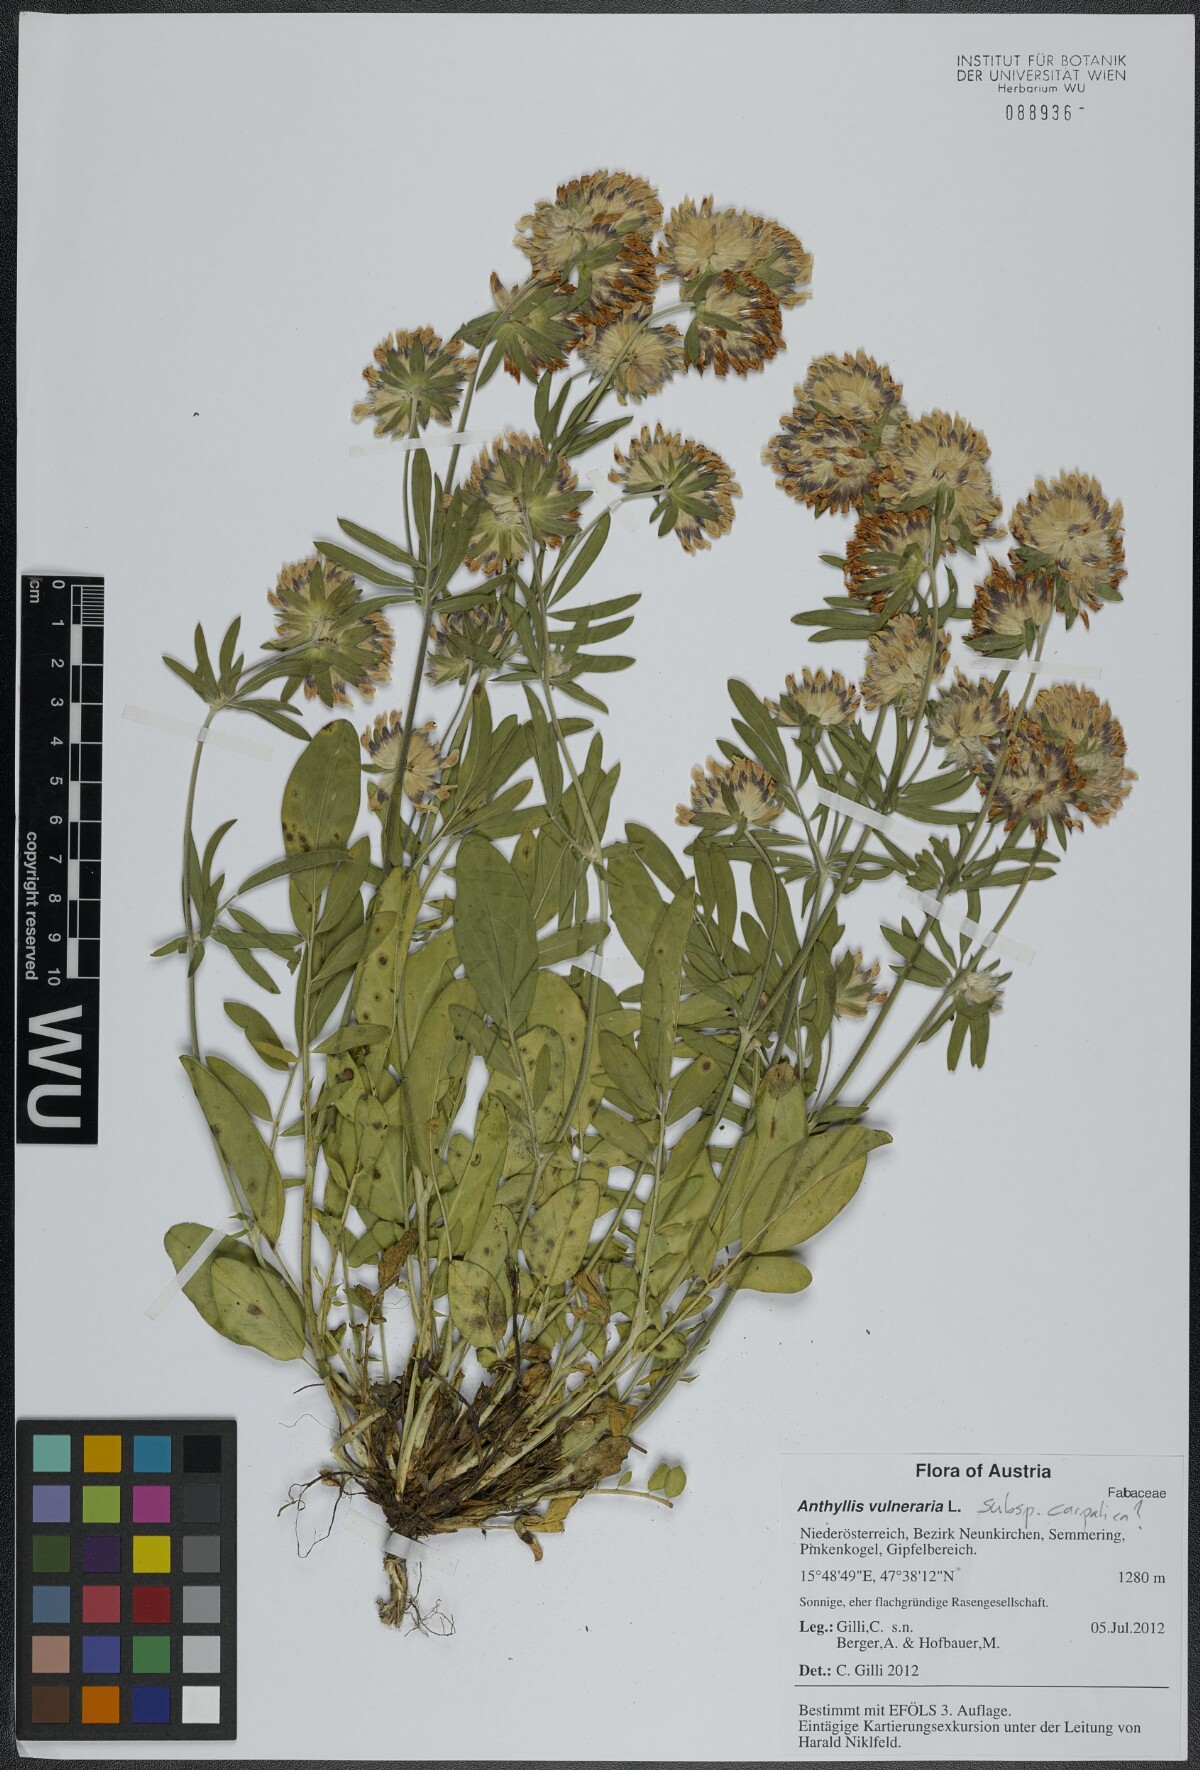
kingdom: Plantae
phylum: Tracheophyta
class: Magnoliopsida
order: Fabales
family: Fabaceae
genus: Anthyllis
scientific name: Anthyllis vulneraria
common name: Kidney vetch
